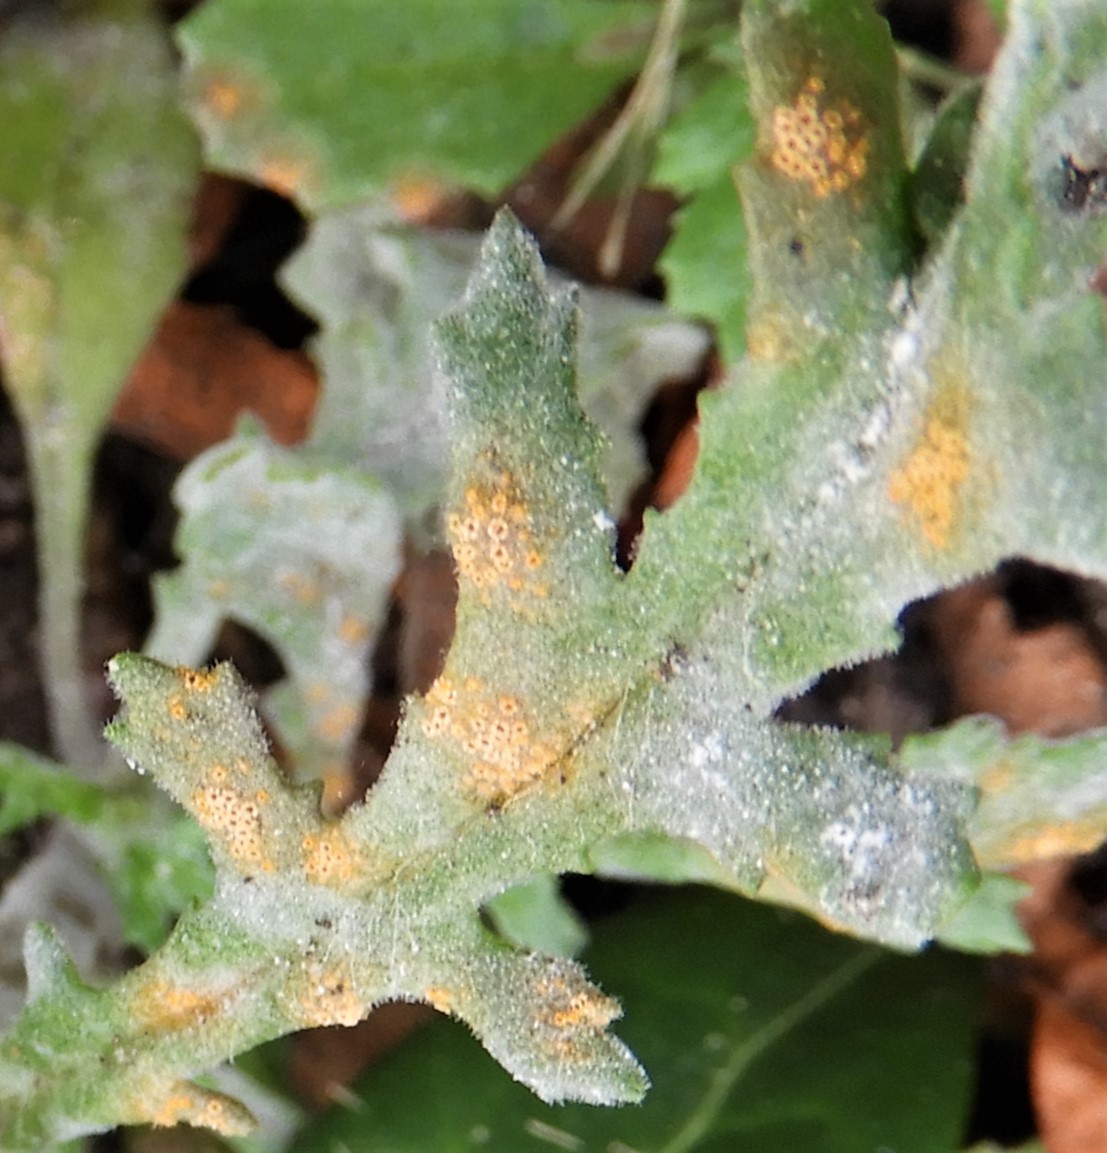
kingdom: Fungi
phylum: Basidiomycota
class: Pucciniomycetes
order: Pucciniales
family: Pucciniaceae
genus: Puccinia
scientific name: Puccinia lagenophorae
